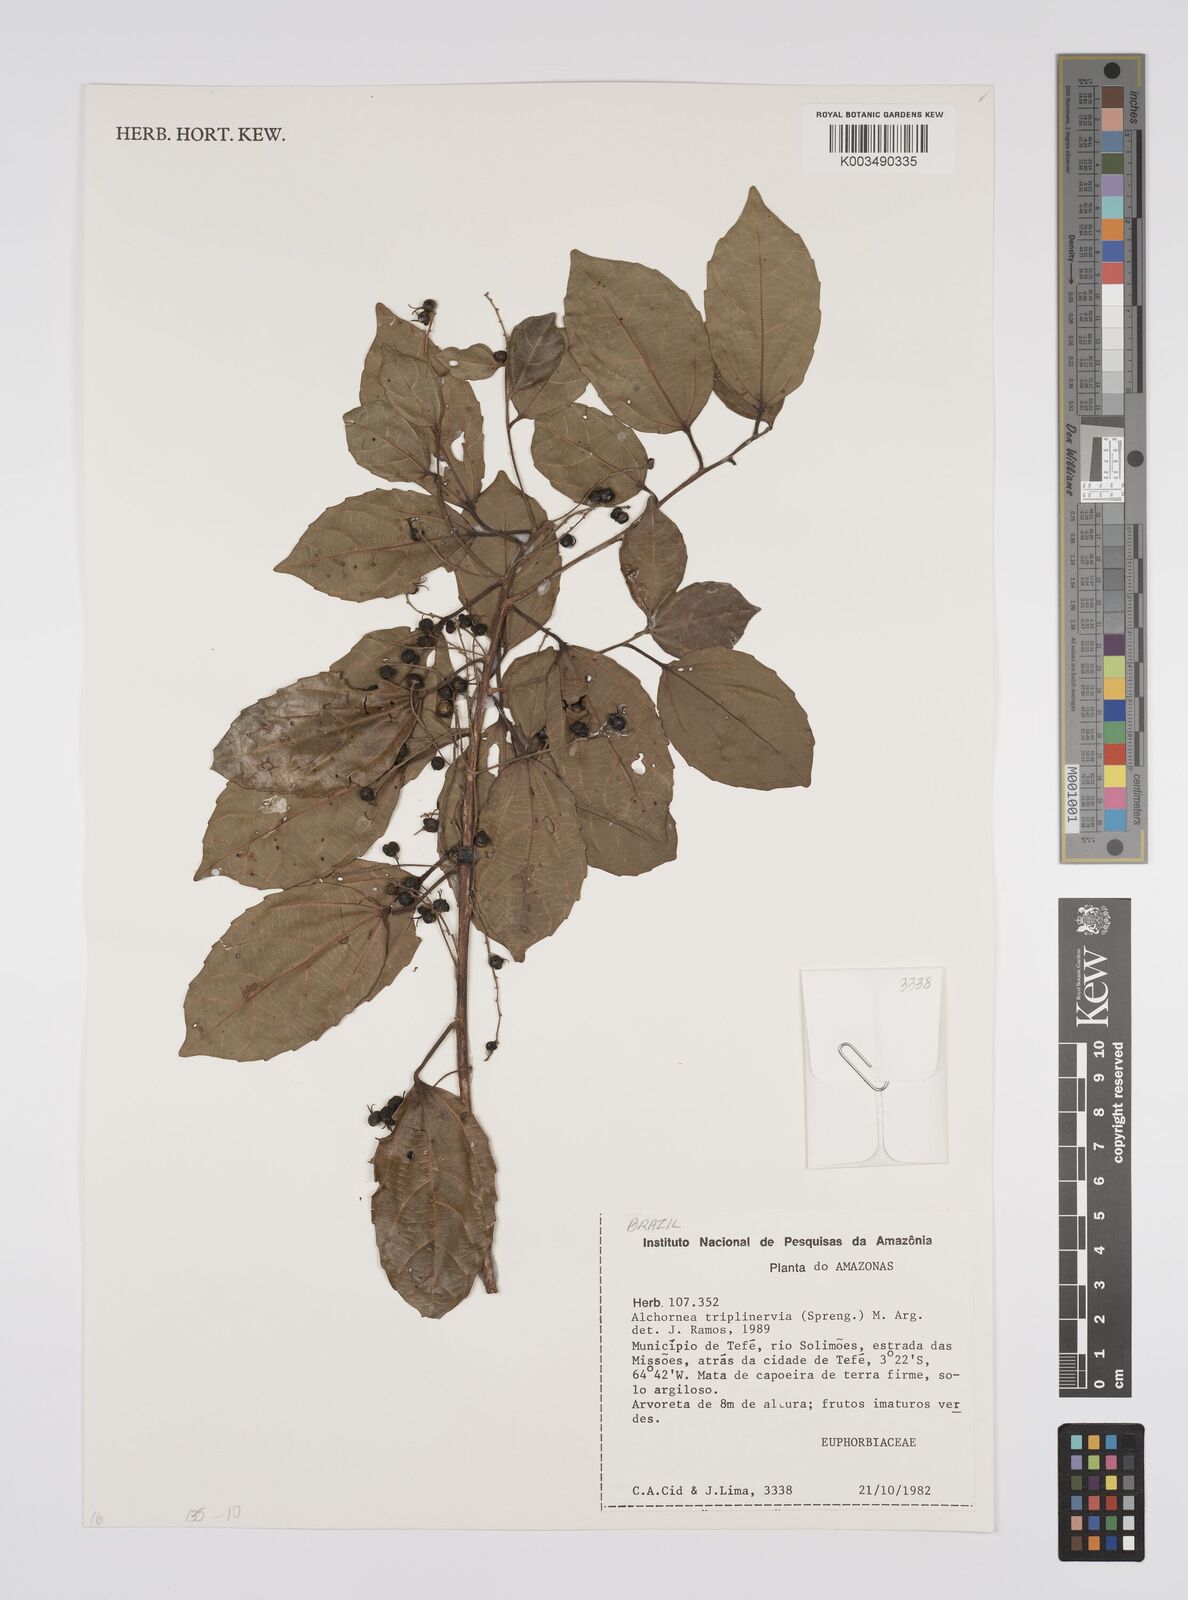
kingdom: Plantae
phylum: Tracheophyta
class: Magnoliopsida
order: Malpighiales
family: Euphorbiaceae
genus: Alchornea
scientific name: Alchornea triplinervia
